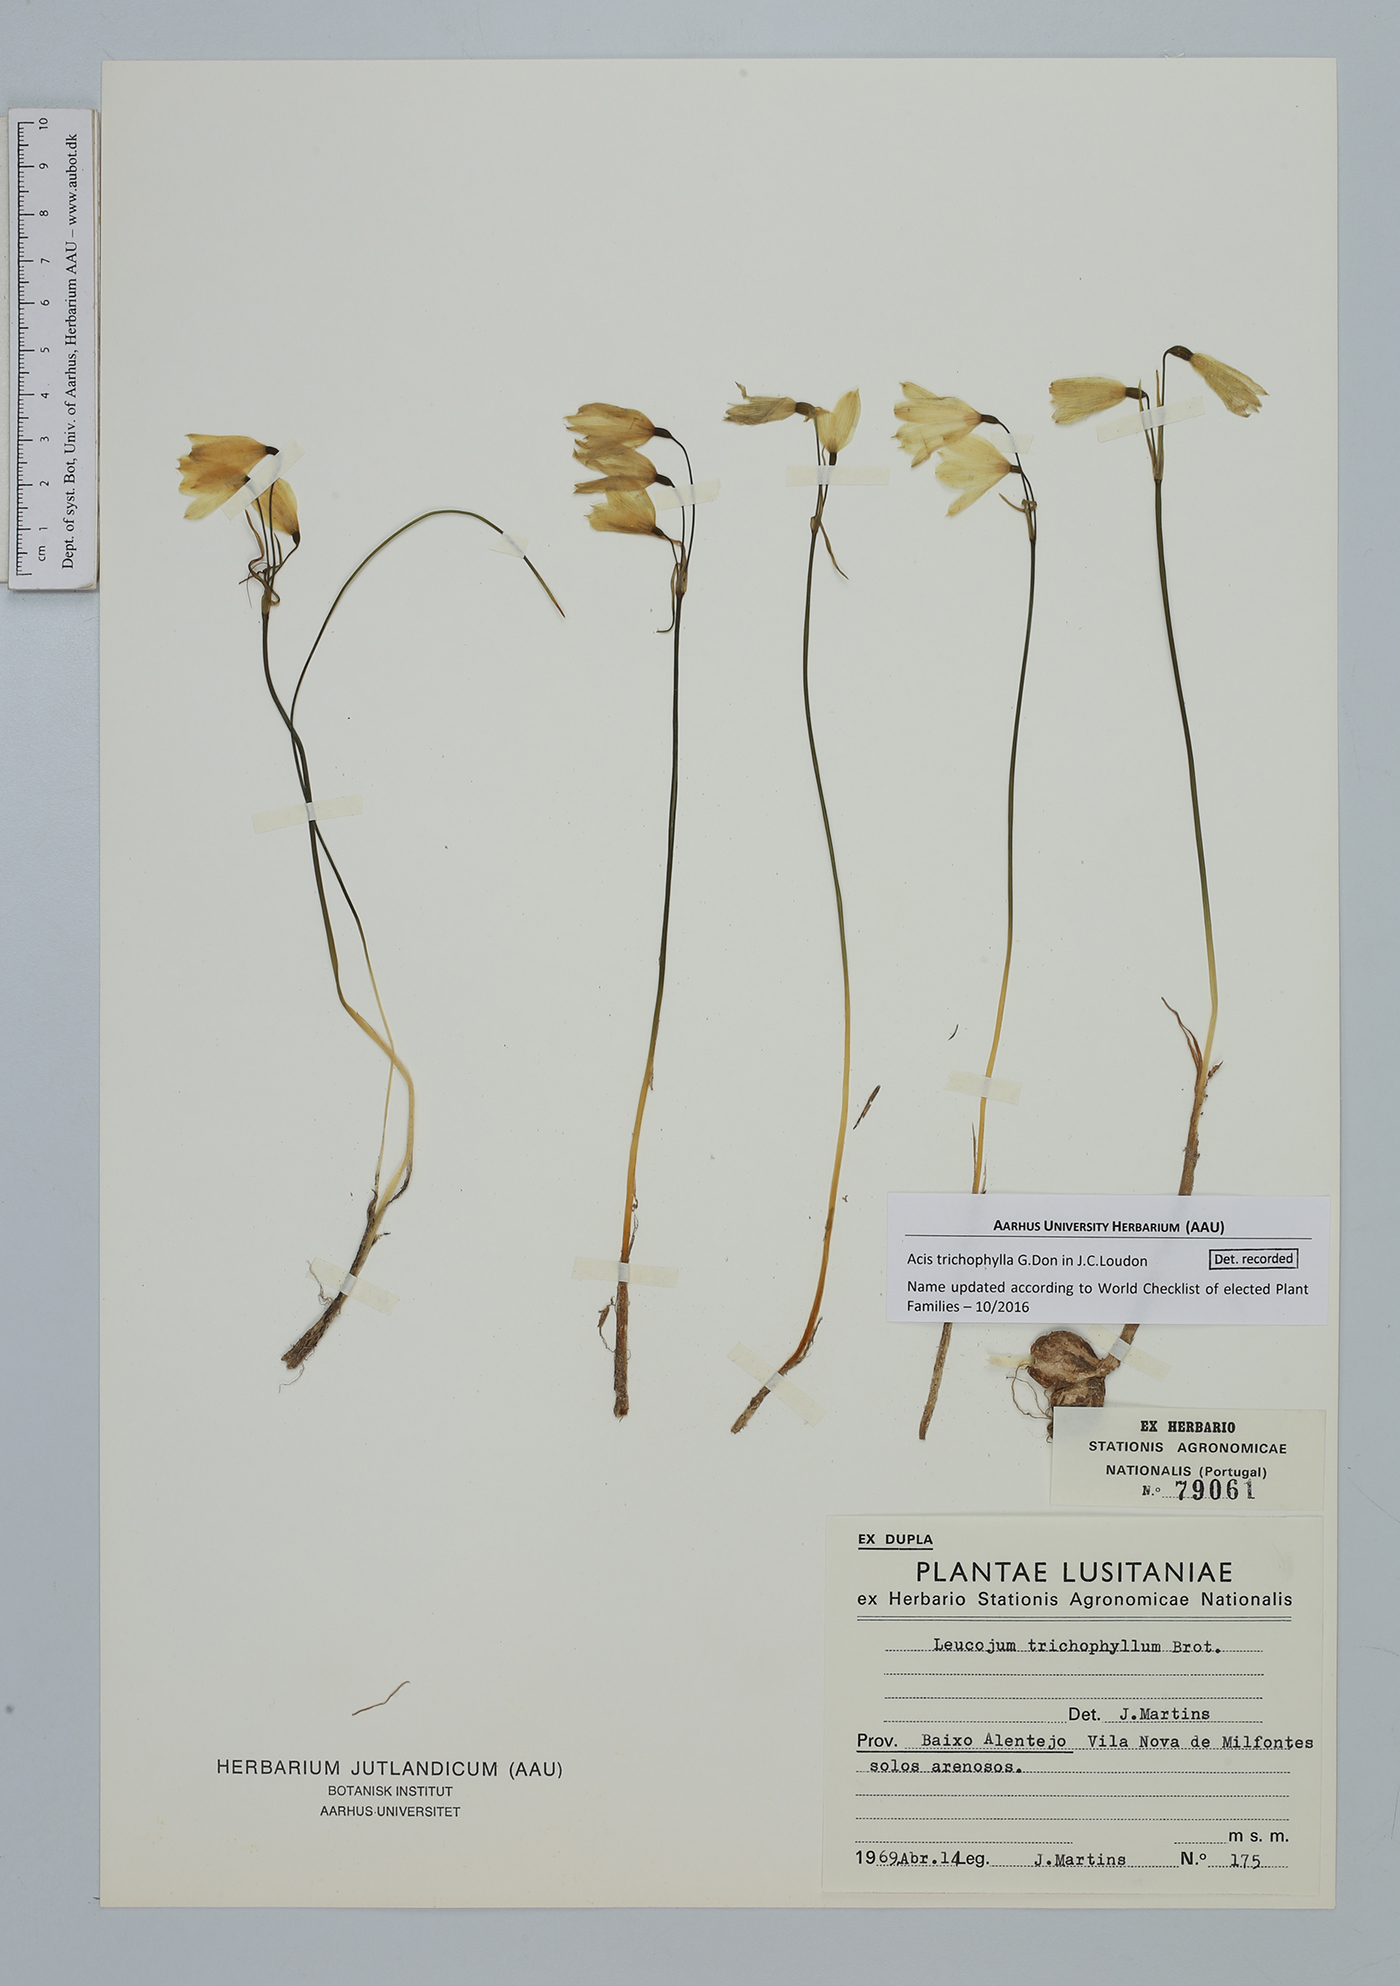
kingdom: Plantae
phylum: Tracheophyta
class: Liliopsida
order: Asparagales
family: Amaryllidaceae
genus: Acis
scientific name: Acis trichophylla
